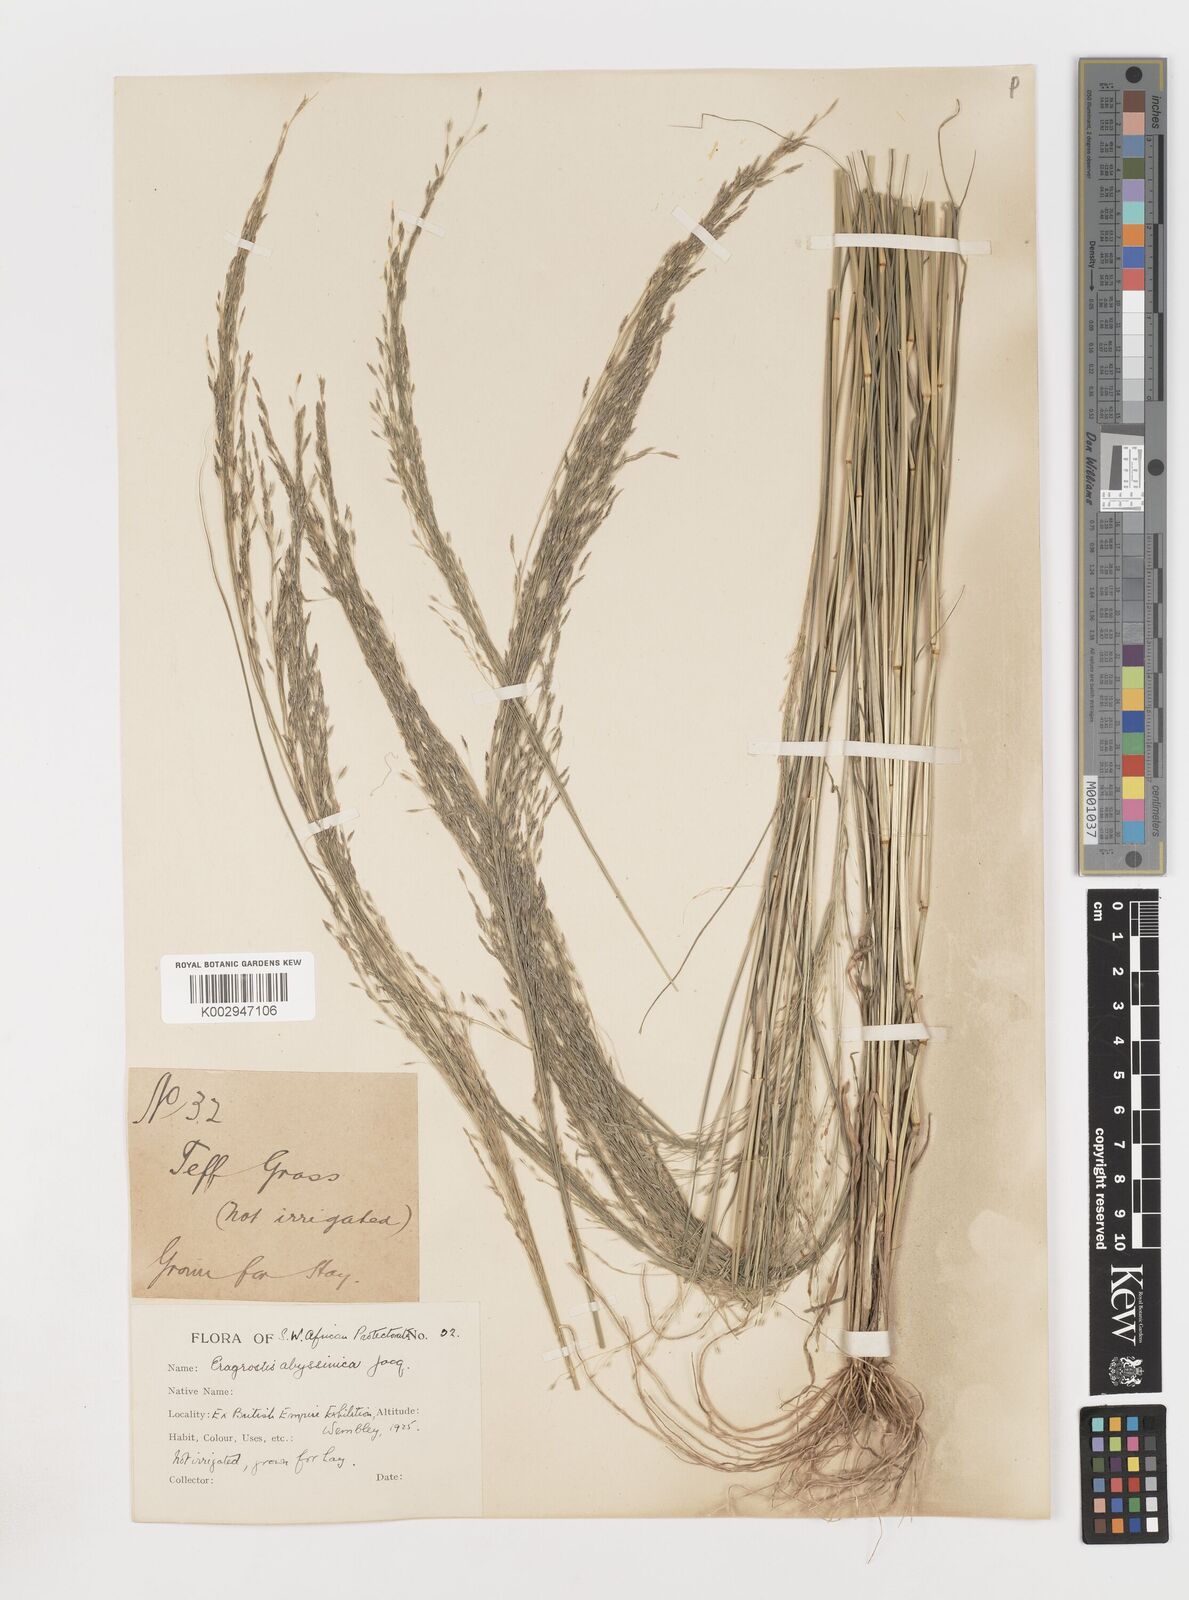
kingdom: Plantae
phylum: Tracheophyta
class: Liliopsida
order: Poales
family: Poaceae
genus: Eragrostis
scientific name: Eragrostis tef
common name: Teff
